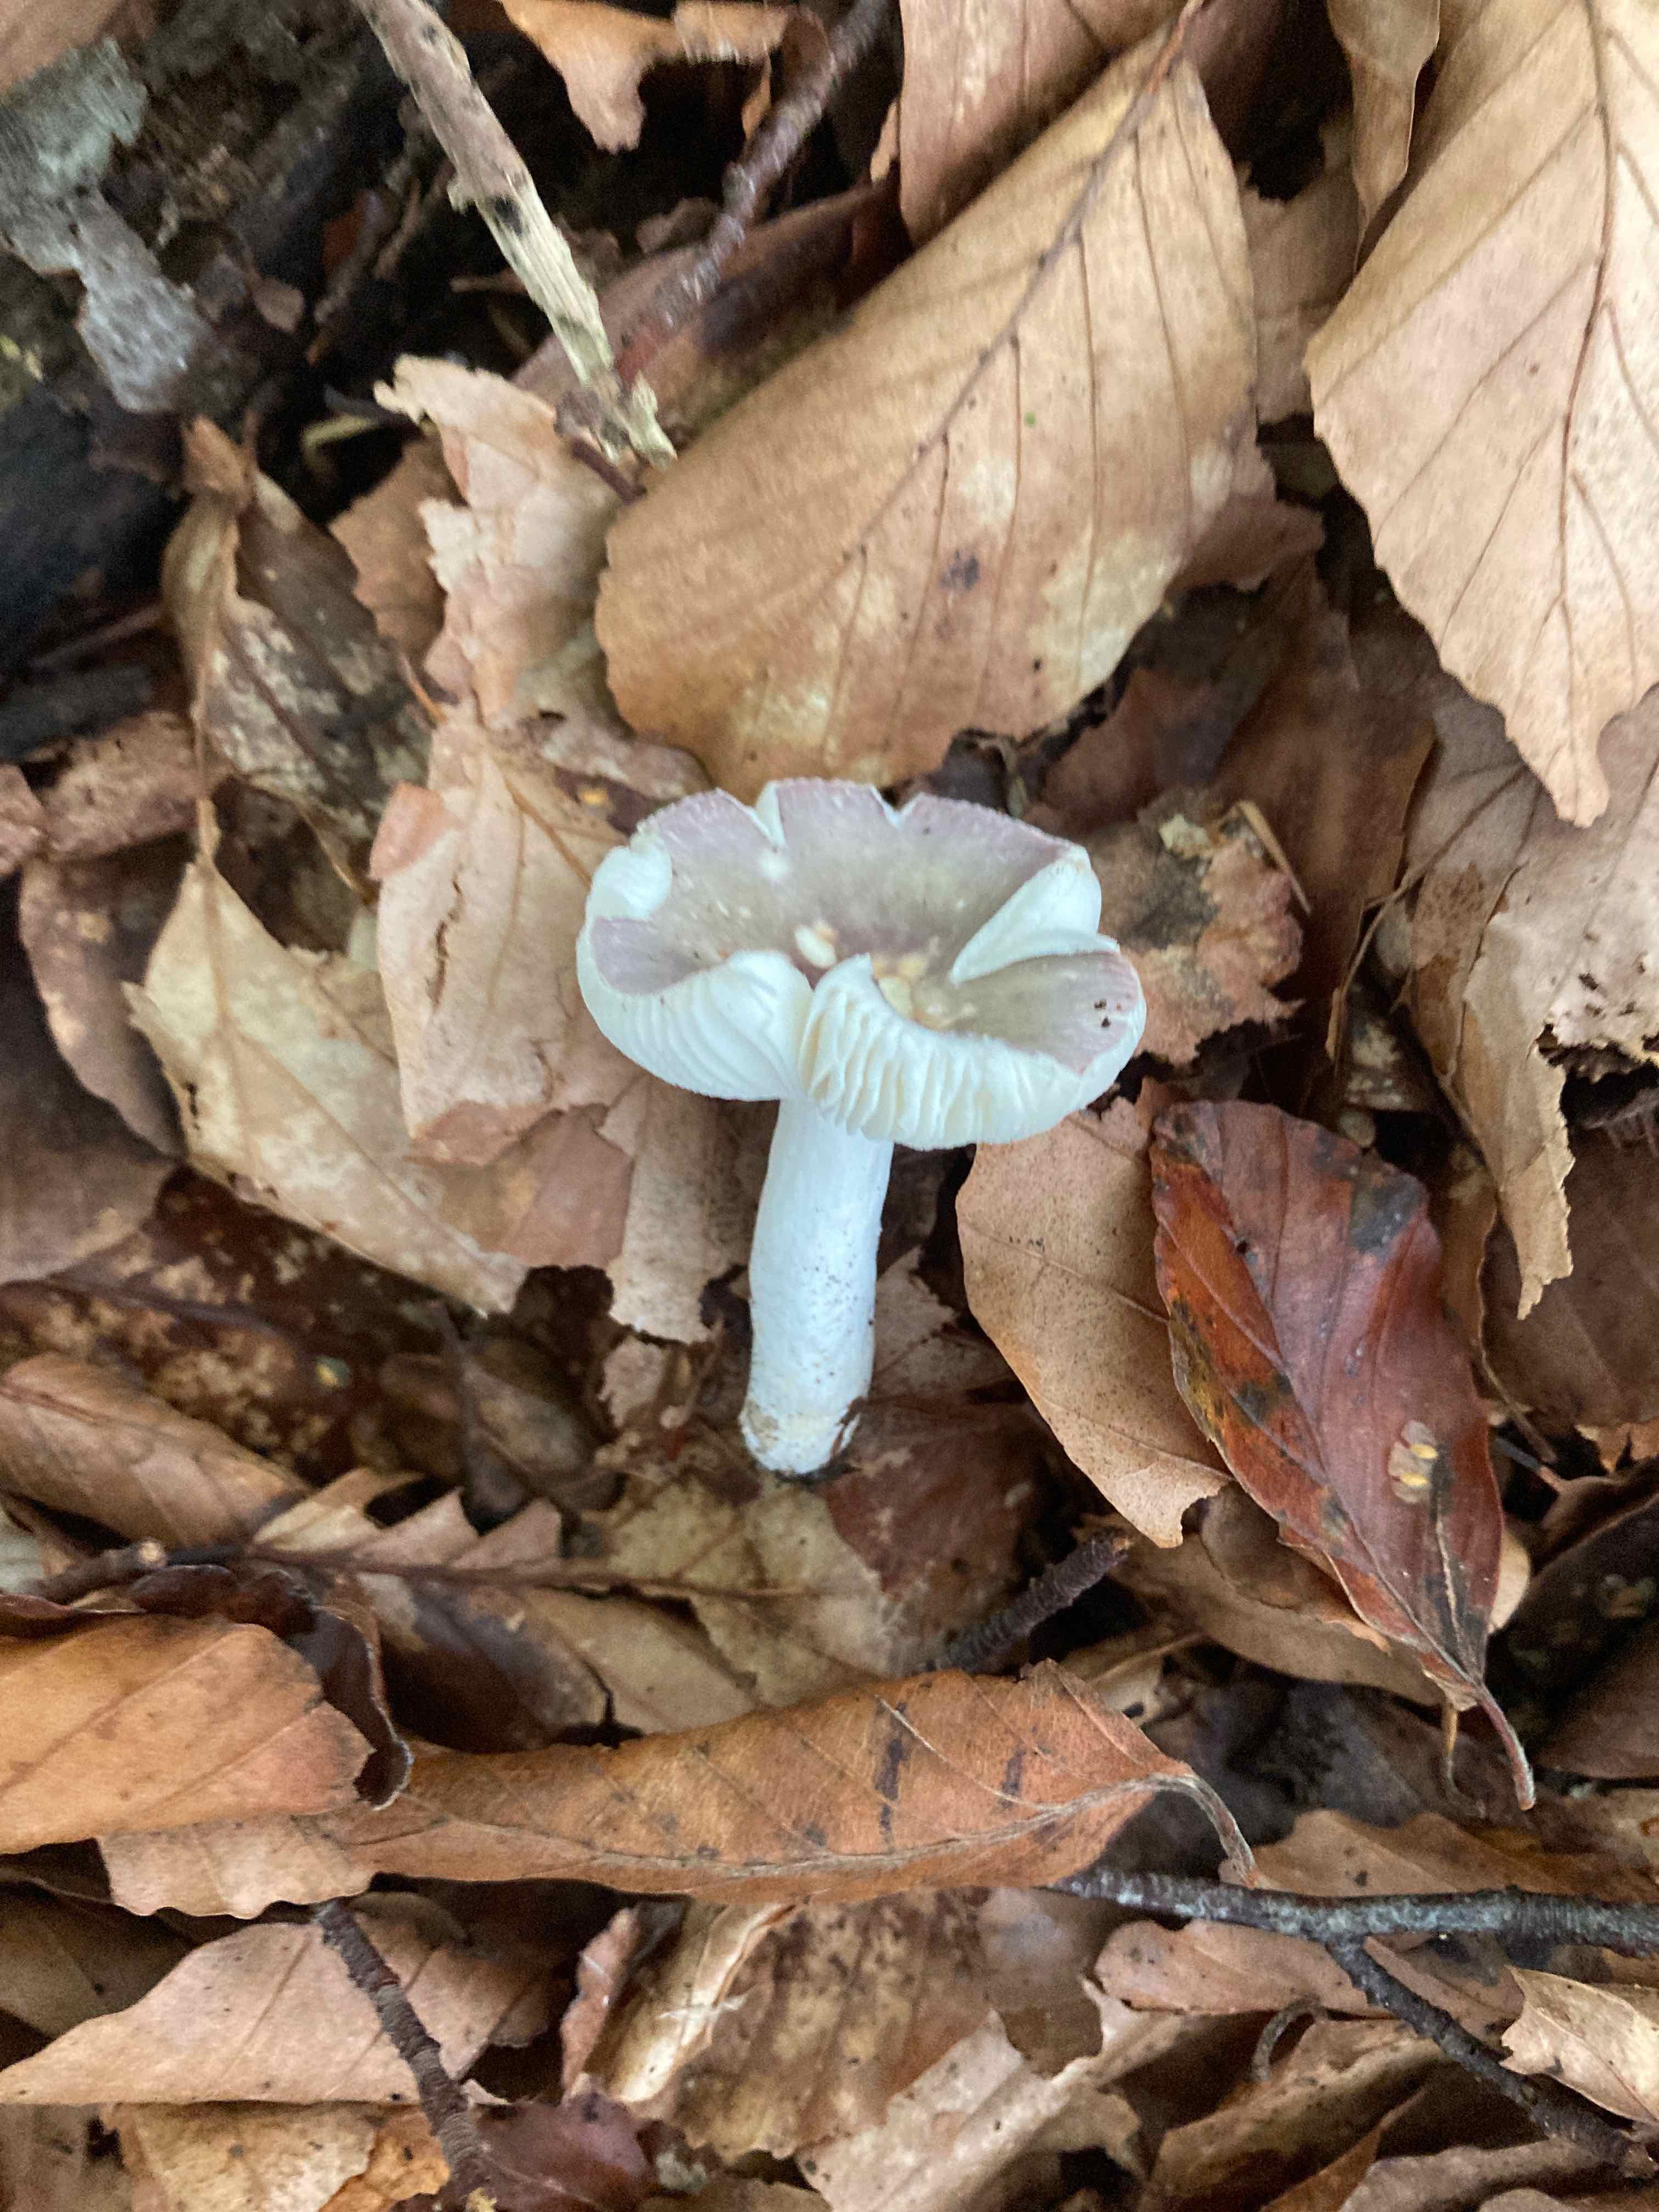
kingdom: Fungi
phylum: Basidiomycota
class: Agaricomycetes
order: Russulales
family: Russulaceae
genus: Russula
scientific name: Russula fragilis
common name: savbladet skørhat
